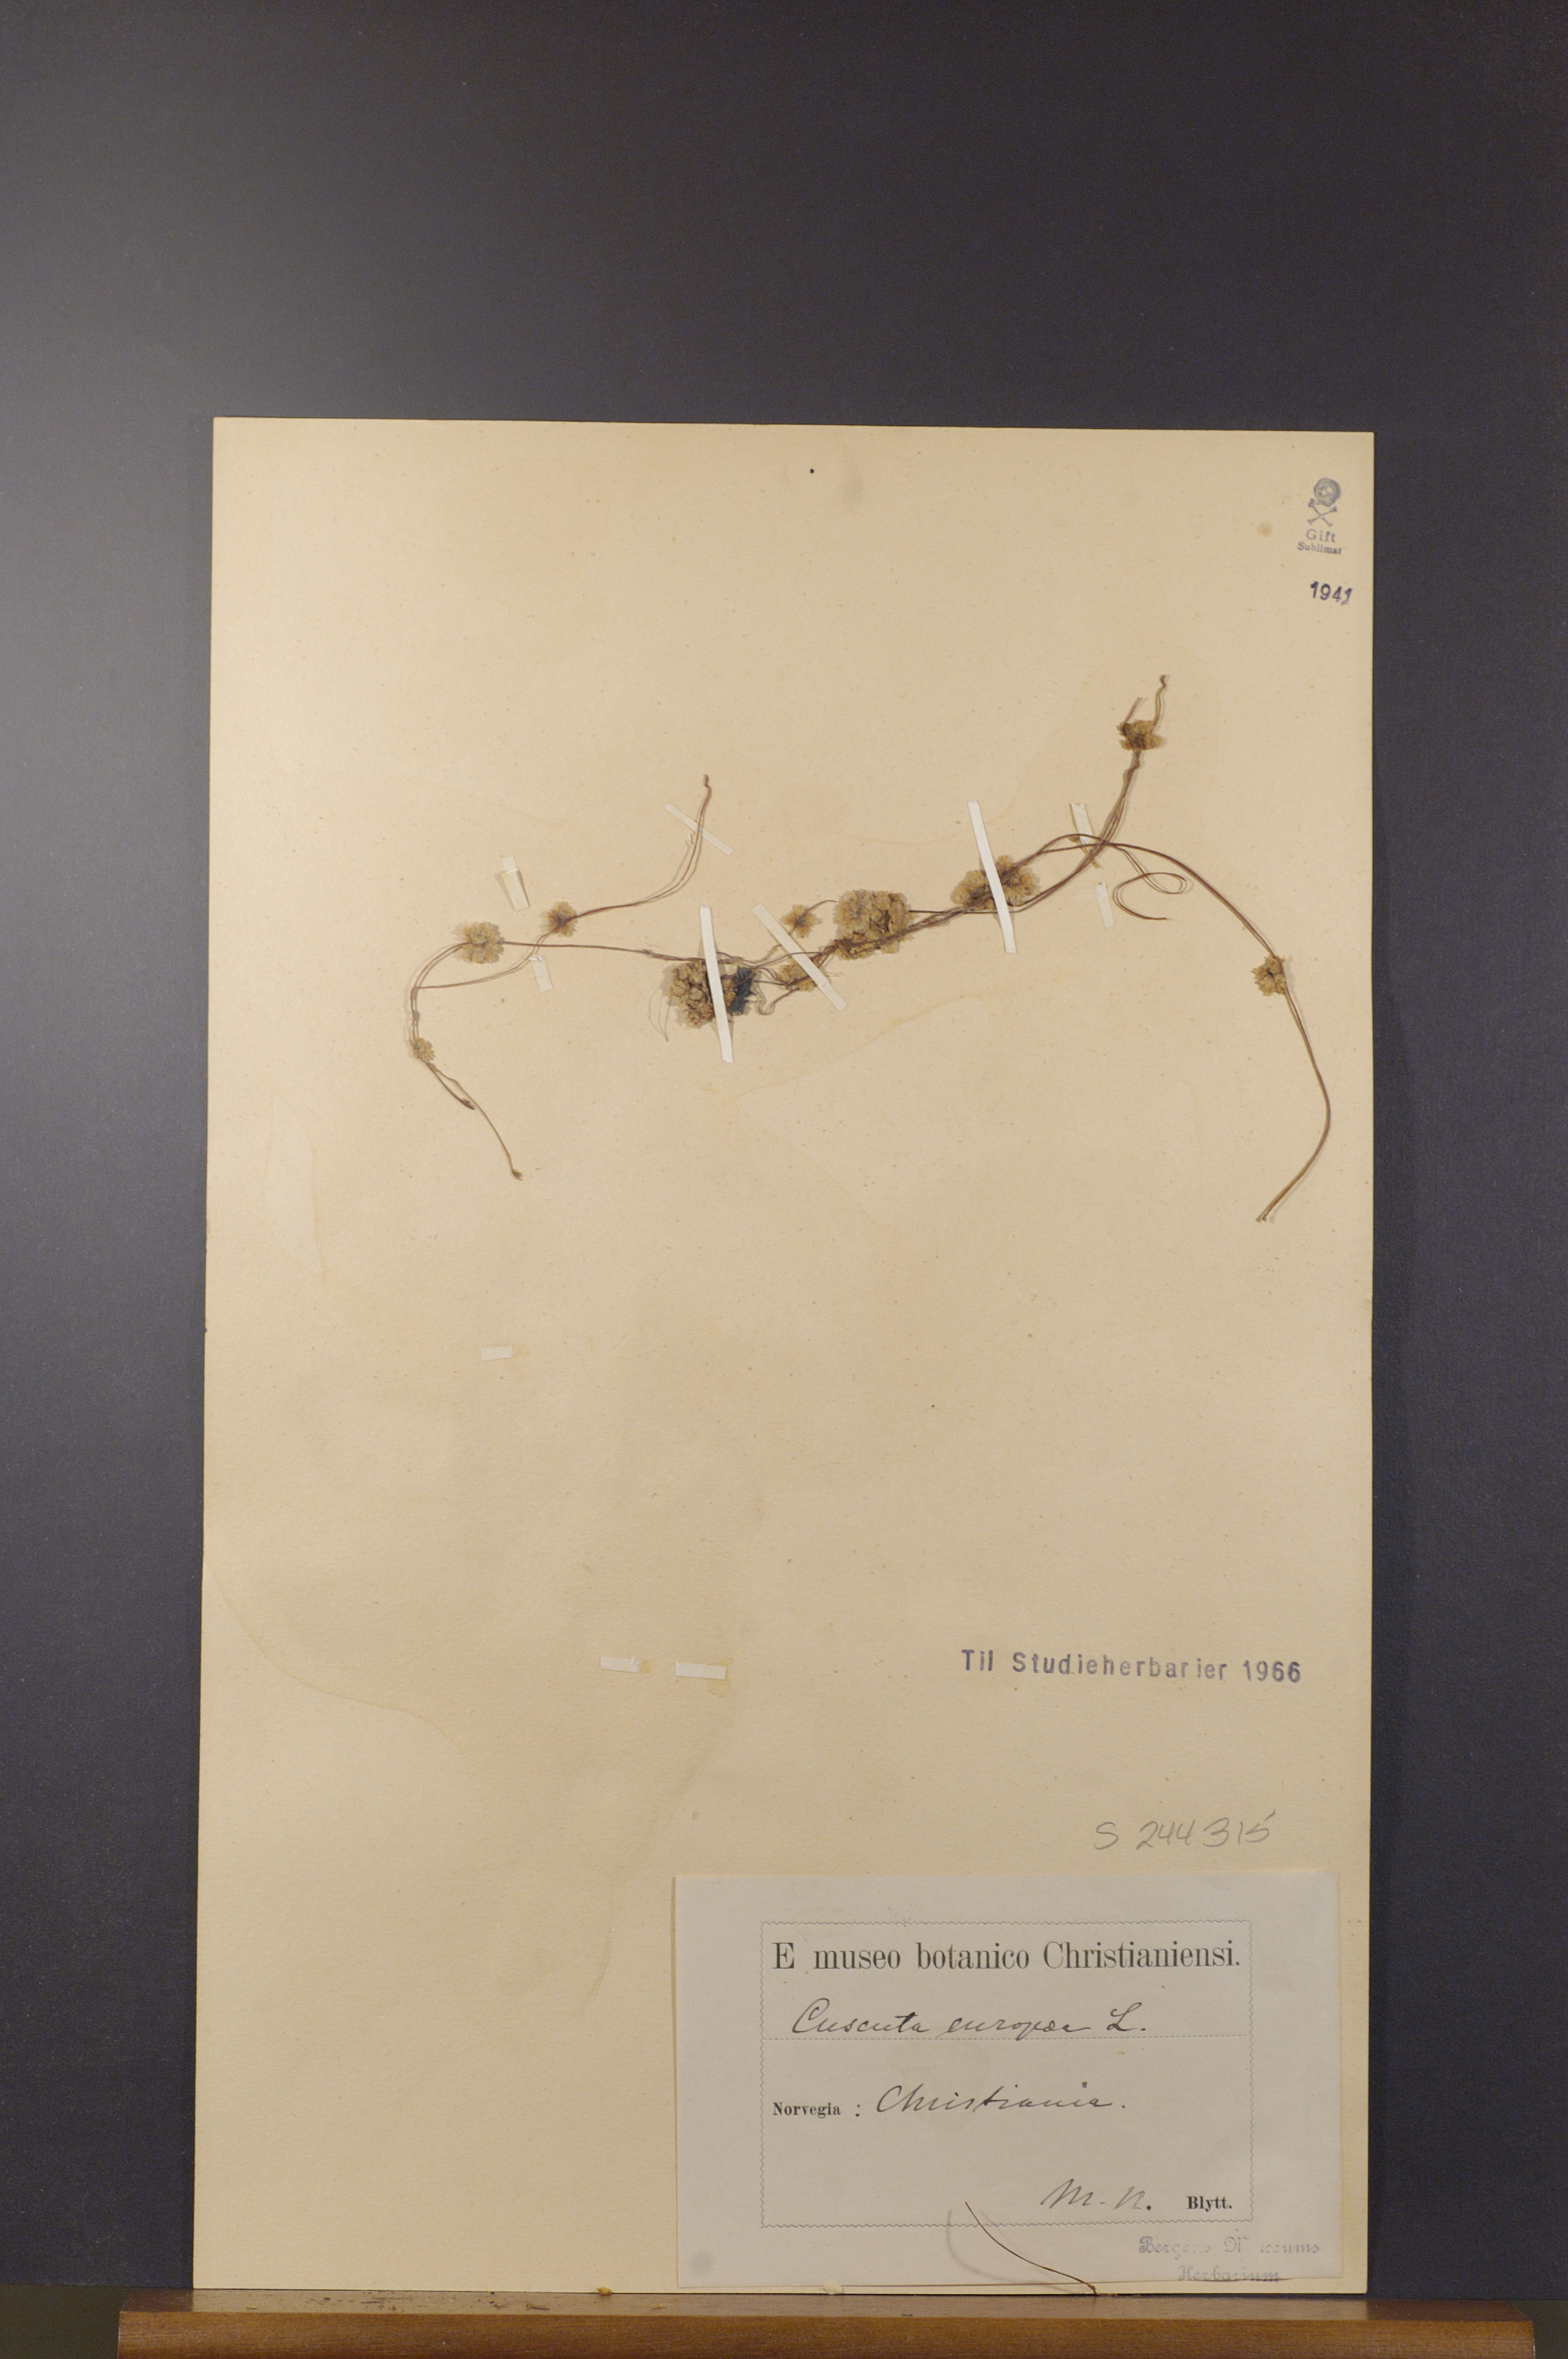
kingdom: Plantae
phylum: Tracheophyta
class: Magnoliopsida
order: Solanales
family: Convolvulaceae
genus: Cuscuta
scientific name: Cuscuta europaea
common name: Greater dodder
